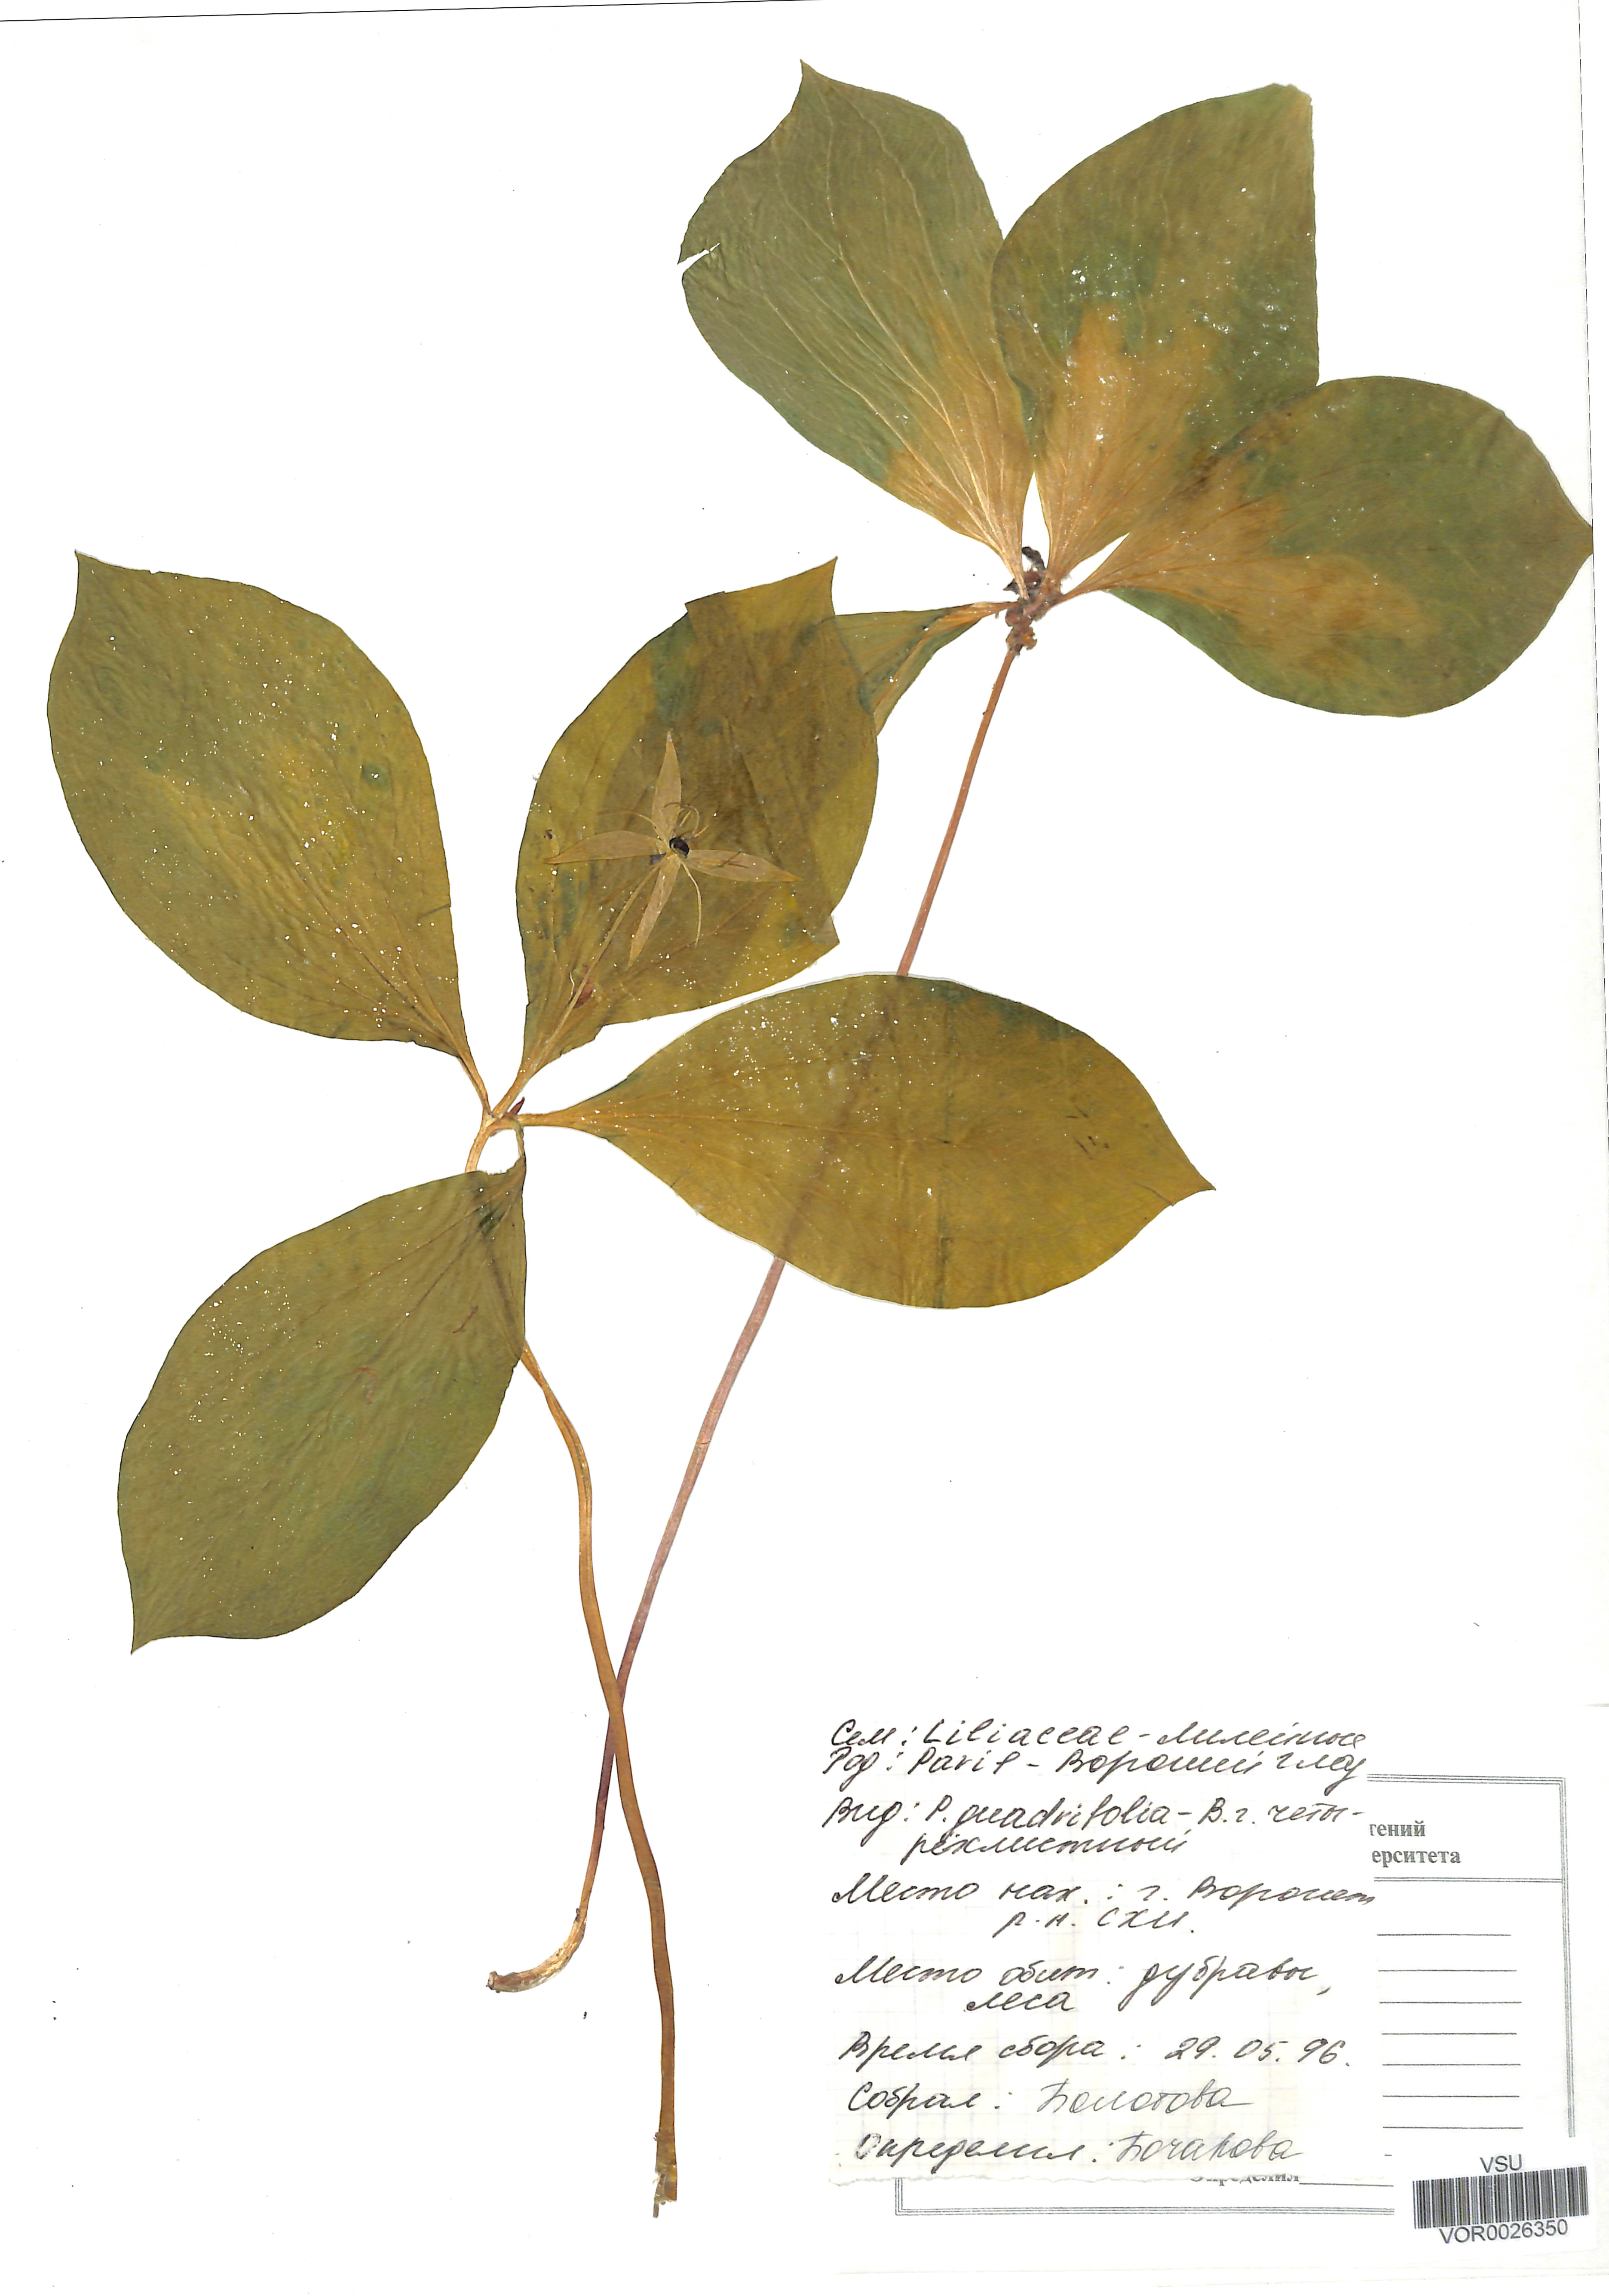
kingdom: Plantae
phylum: Tracheophyta
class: Liliopsida
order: Liliales
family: Melanthiaceae
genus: Paris
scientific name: Paris quadrifolia
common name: Herb-paris
